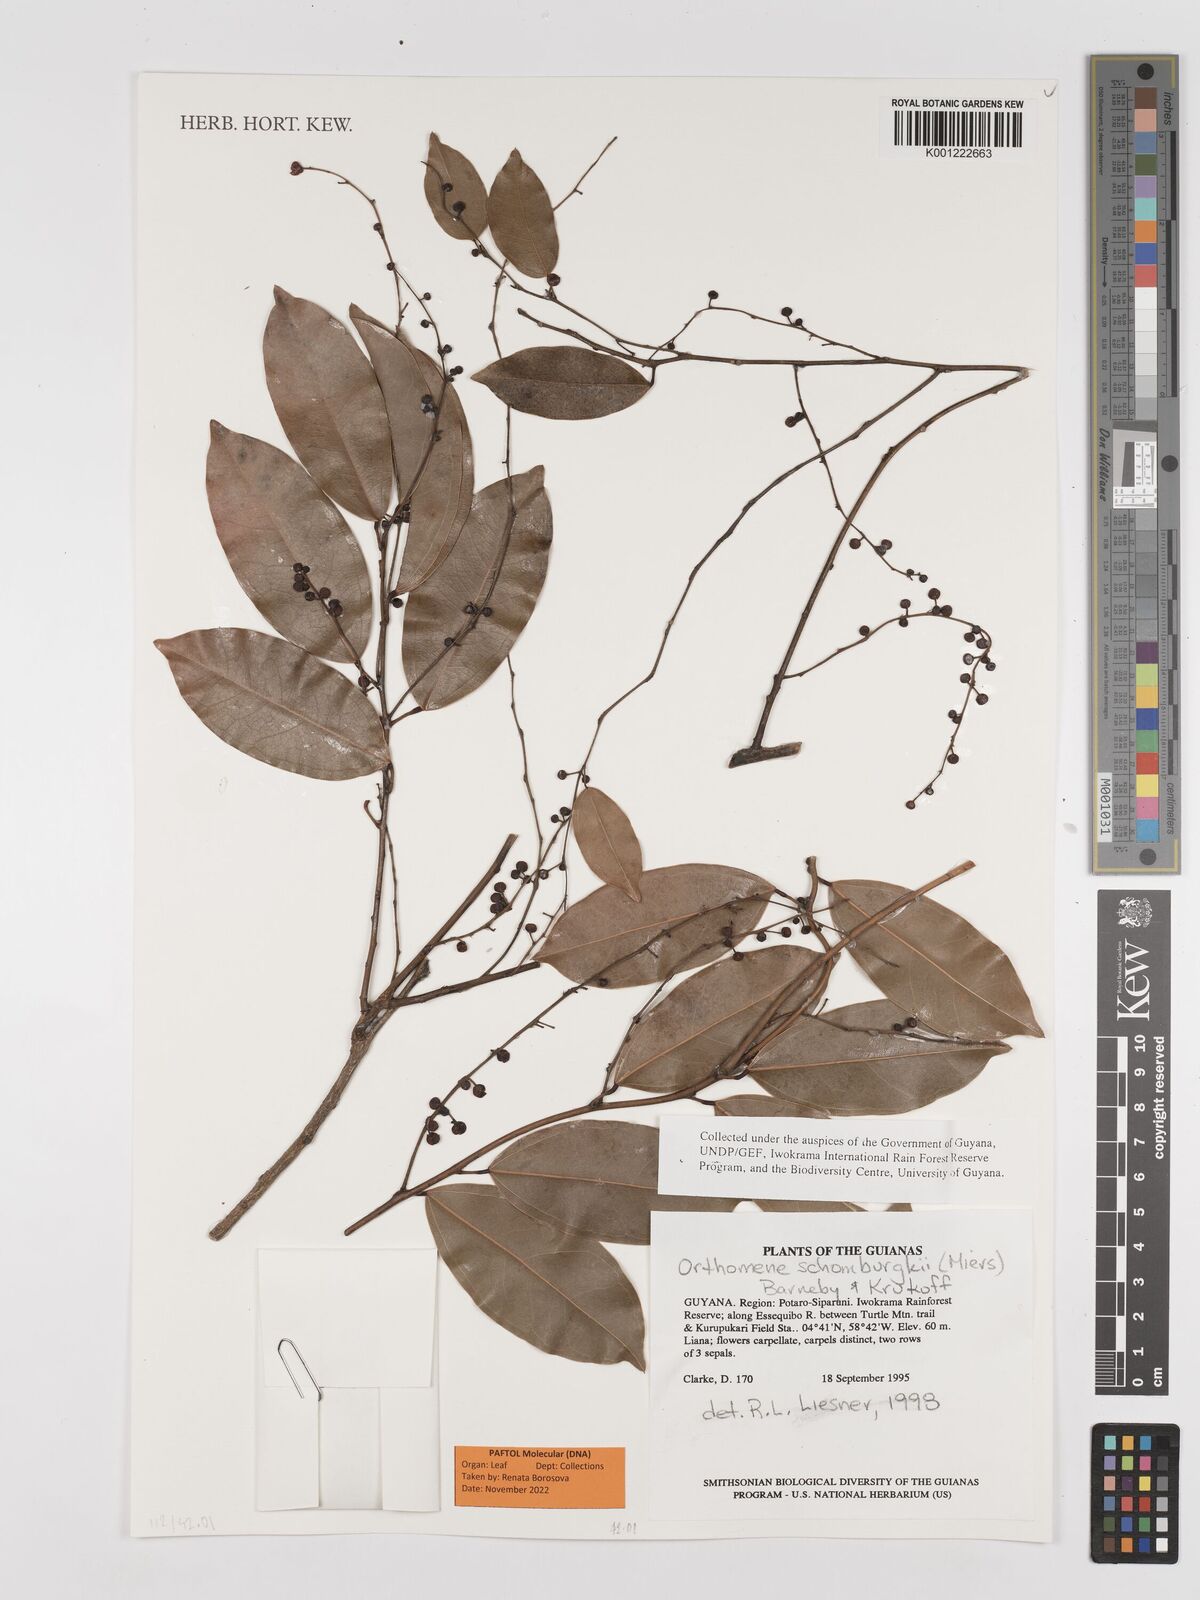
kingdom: Plantae
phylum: Tracheophyta
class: Magnoliopsida
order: Ranunculales
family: Menispermaceae
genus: Orthomene
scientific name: Orthomene schomburgkii
